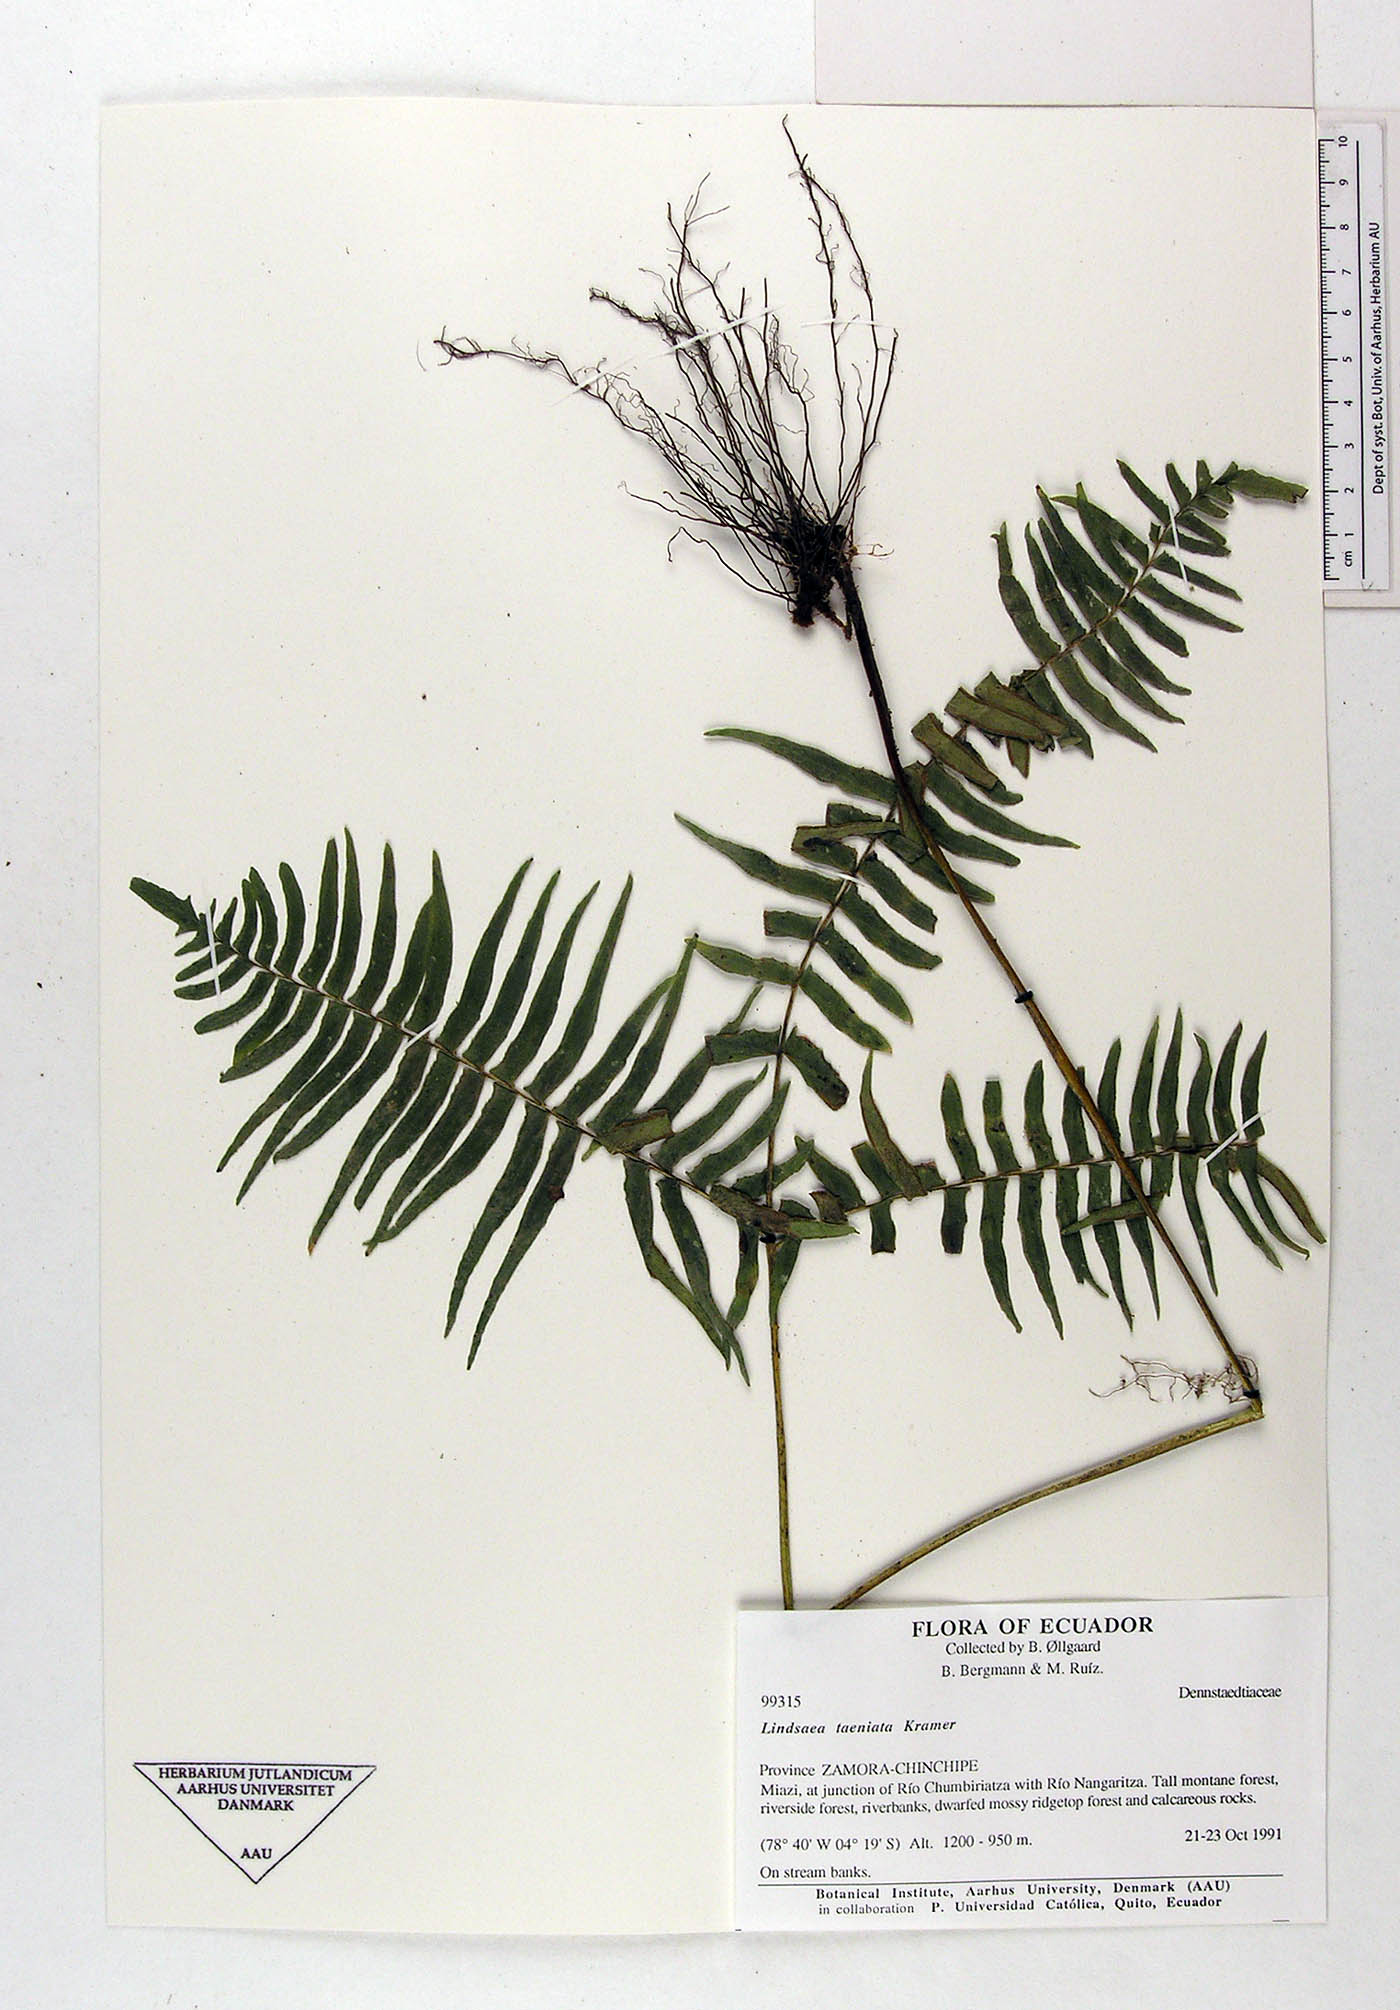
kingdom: Plantae
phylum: Tracheophyta
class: Polypodiopsida
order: Polypodiales
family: Lindsaeaceae
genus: Lindsaea
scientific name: Lindsaea taeniata
